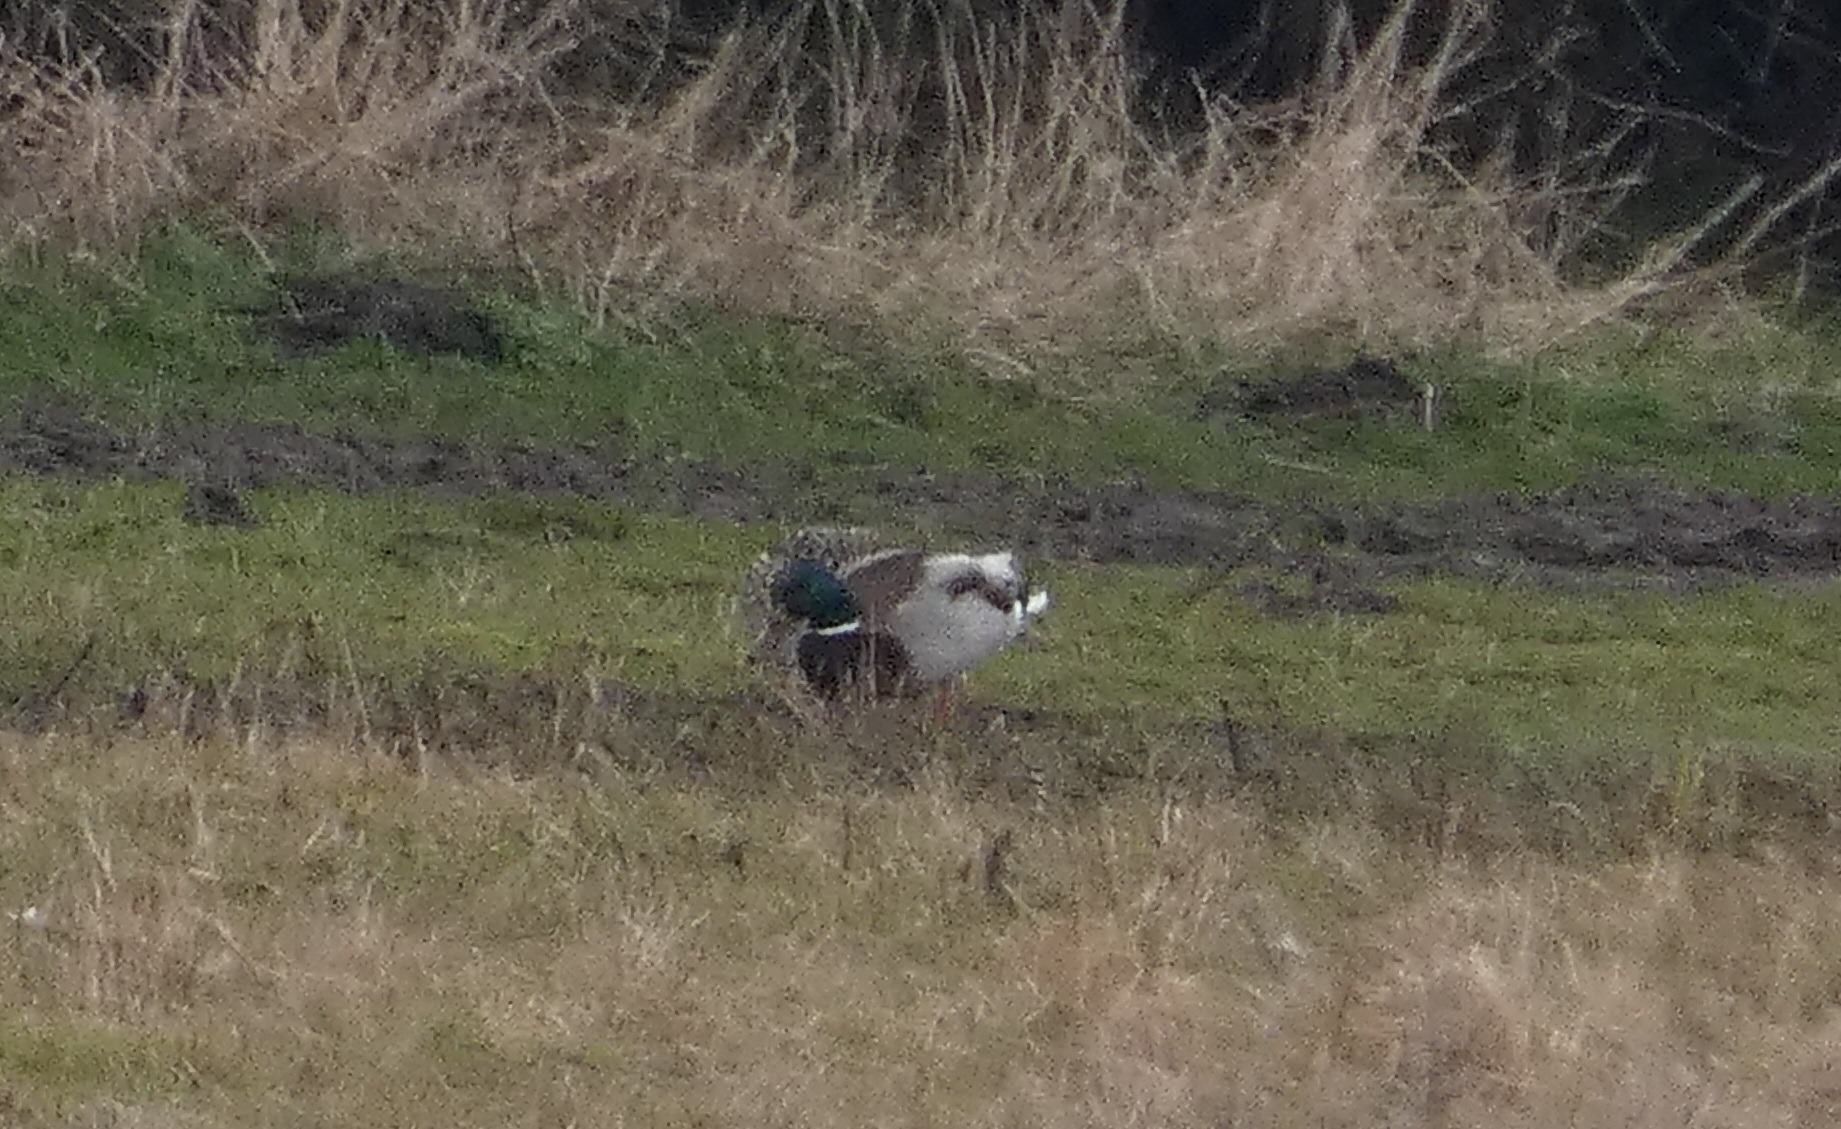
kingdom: Animalia
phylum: Chordata
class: Aves
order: Anseriformes
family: Anatidae
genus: Anas
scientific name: Anas platyrhynchos
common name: Gråand
